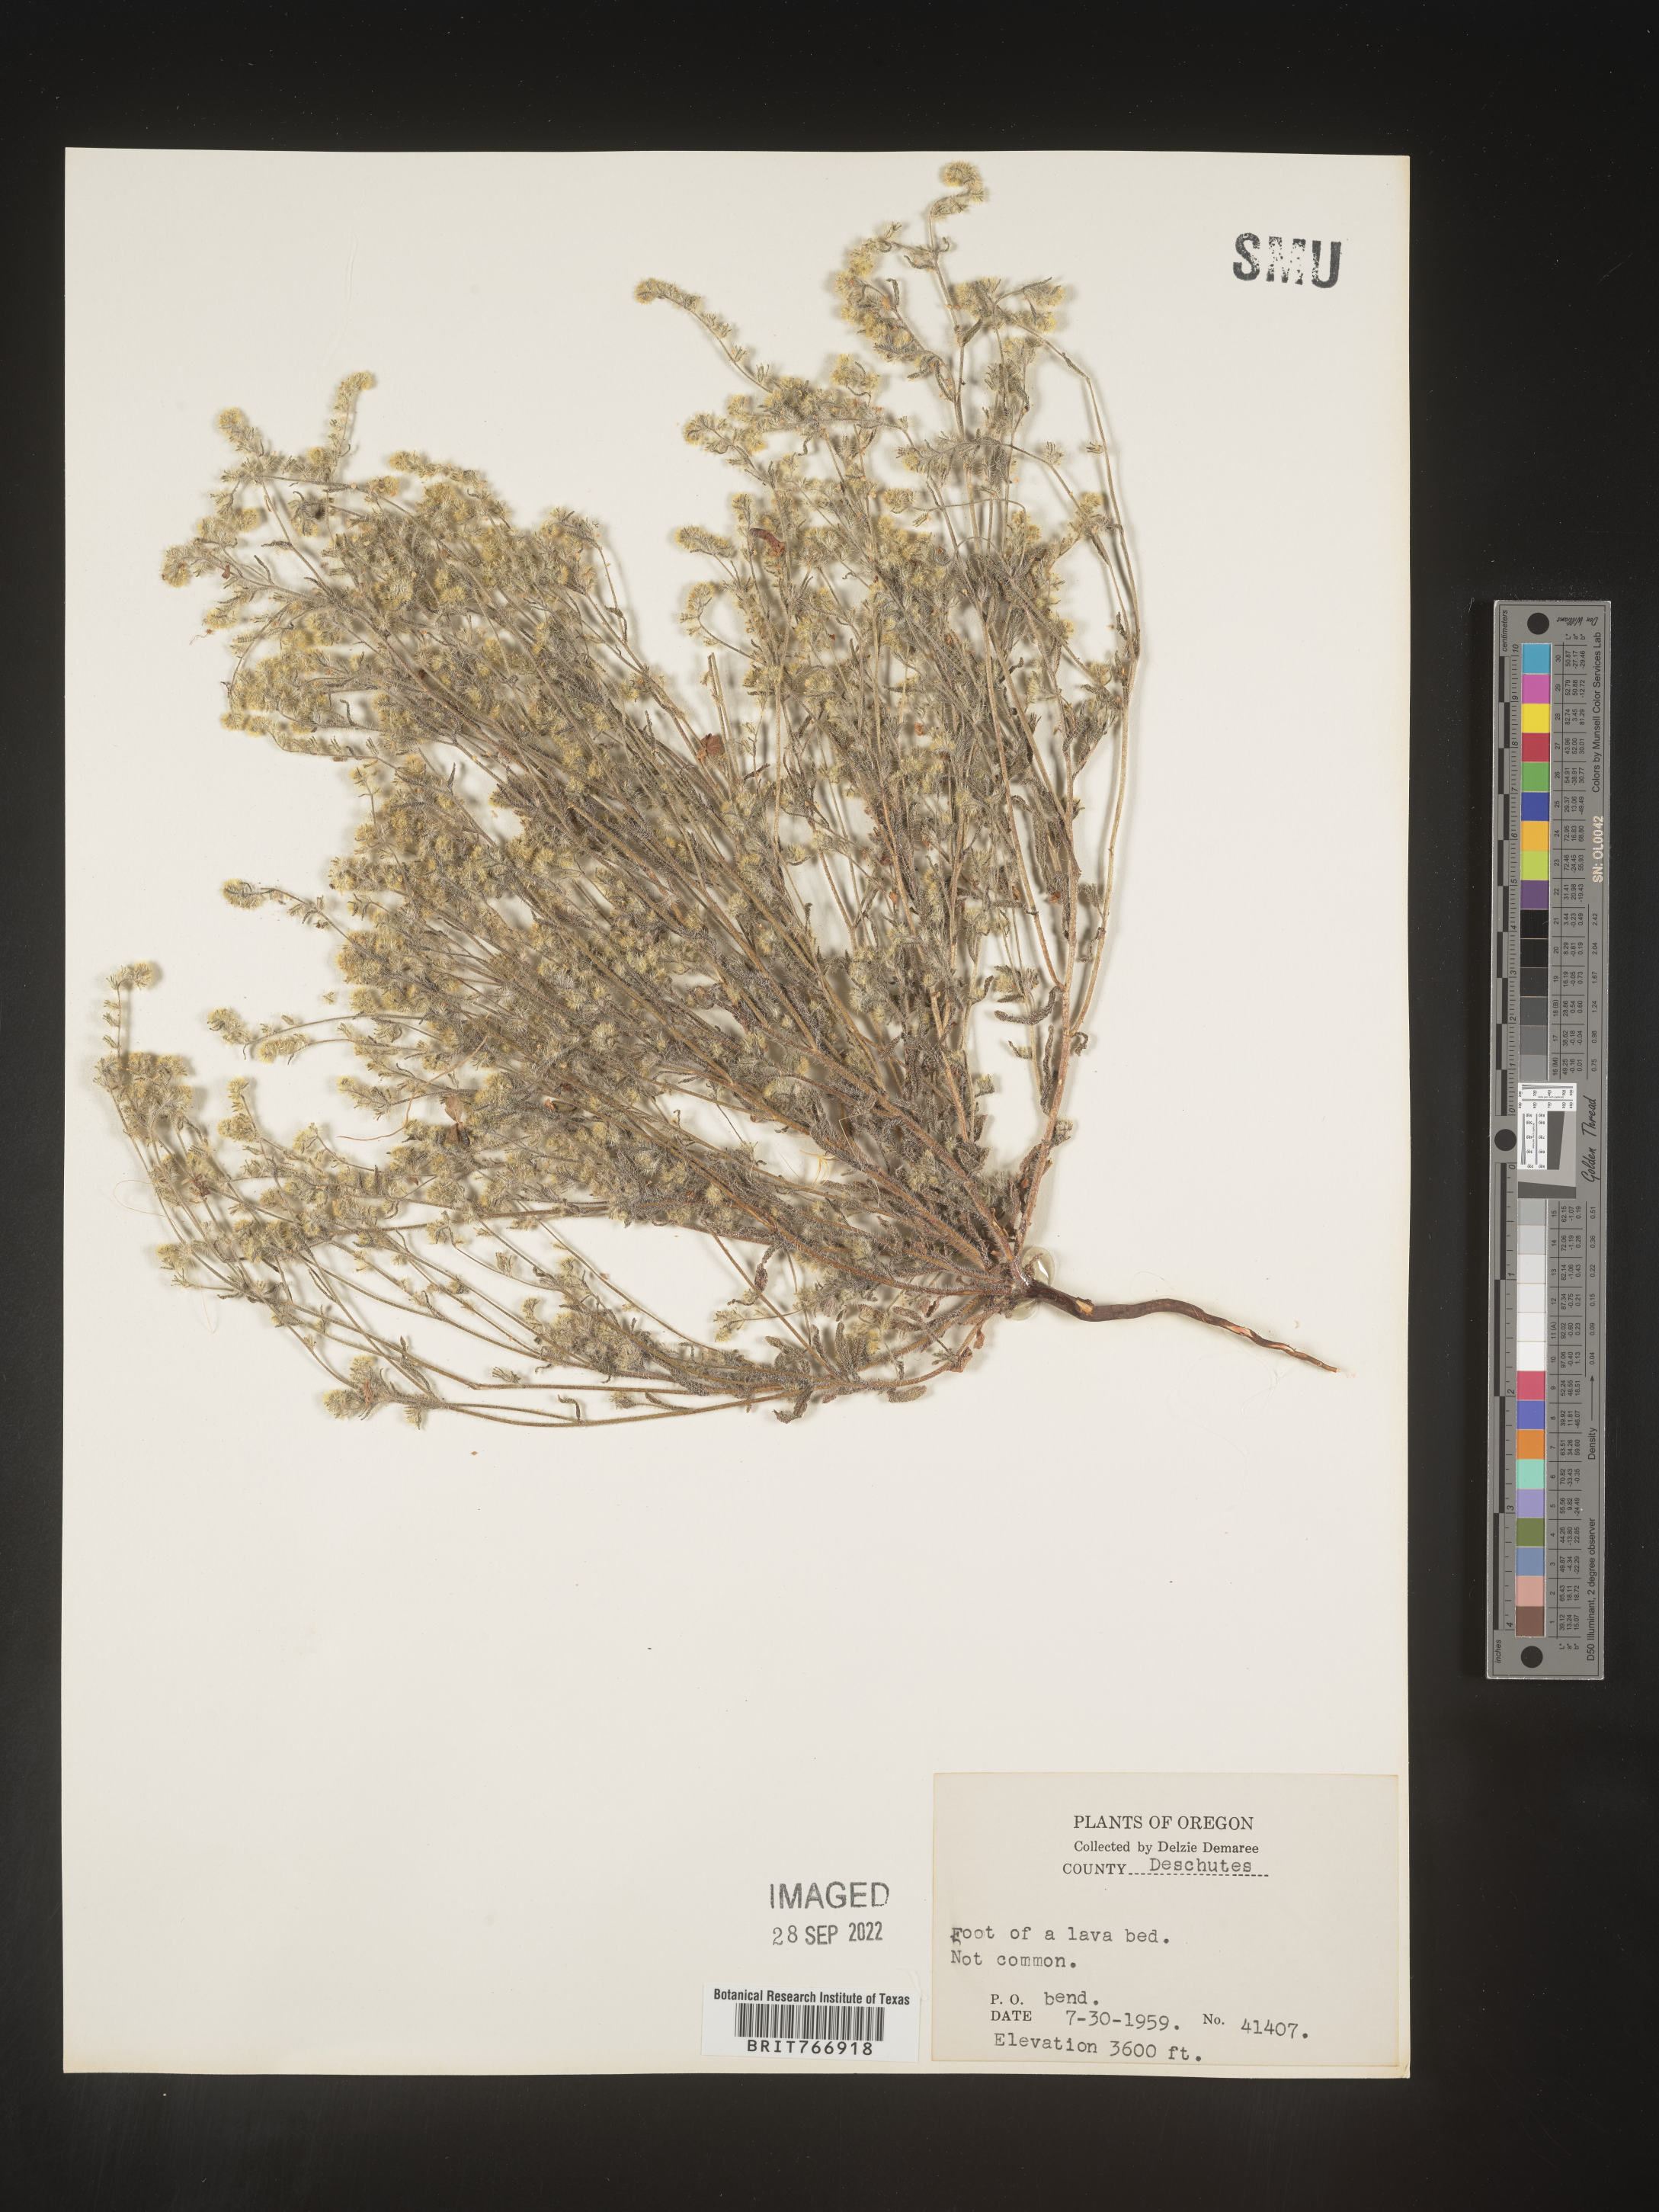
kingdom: Plantae
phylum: Tracheophyta
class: Magnoliopsida
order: Boraginales
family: Boraginaceae
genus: Cryptantha
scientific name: Cryptantha
